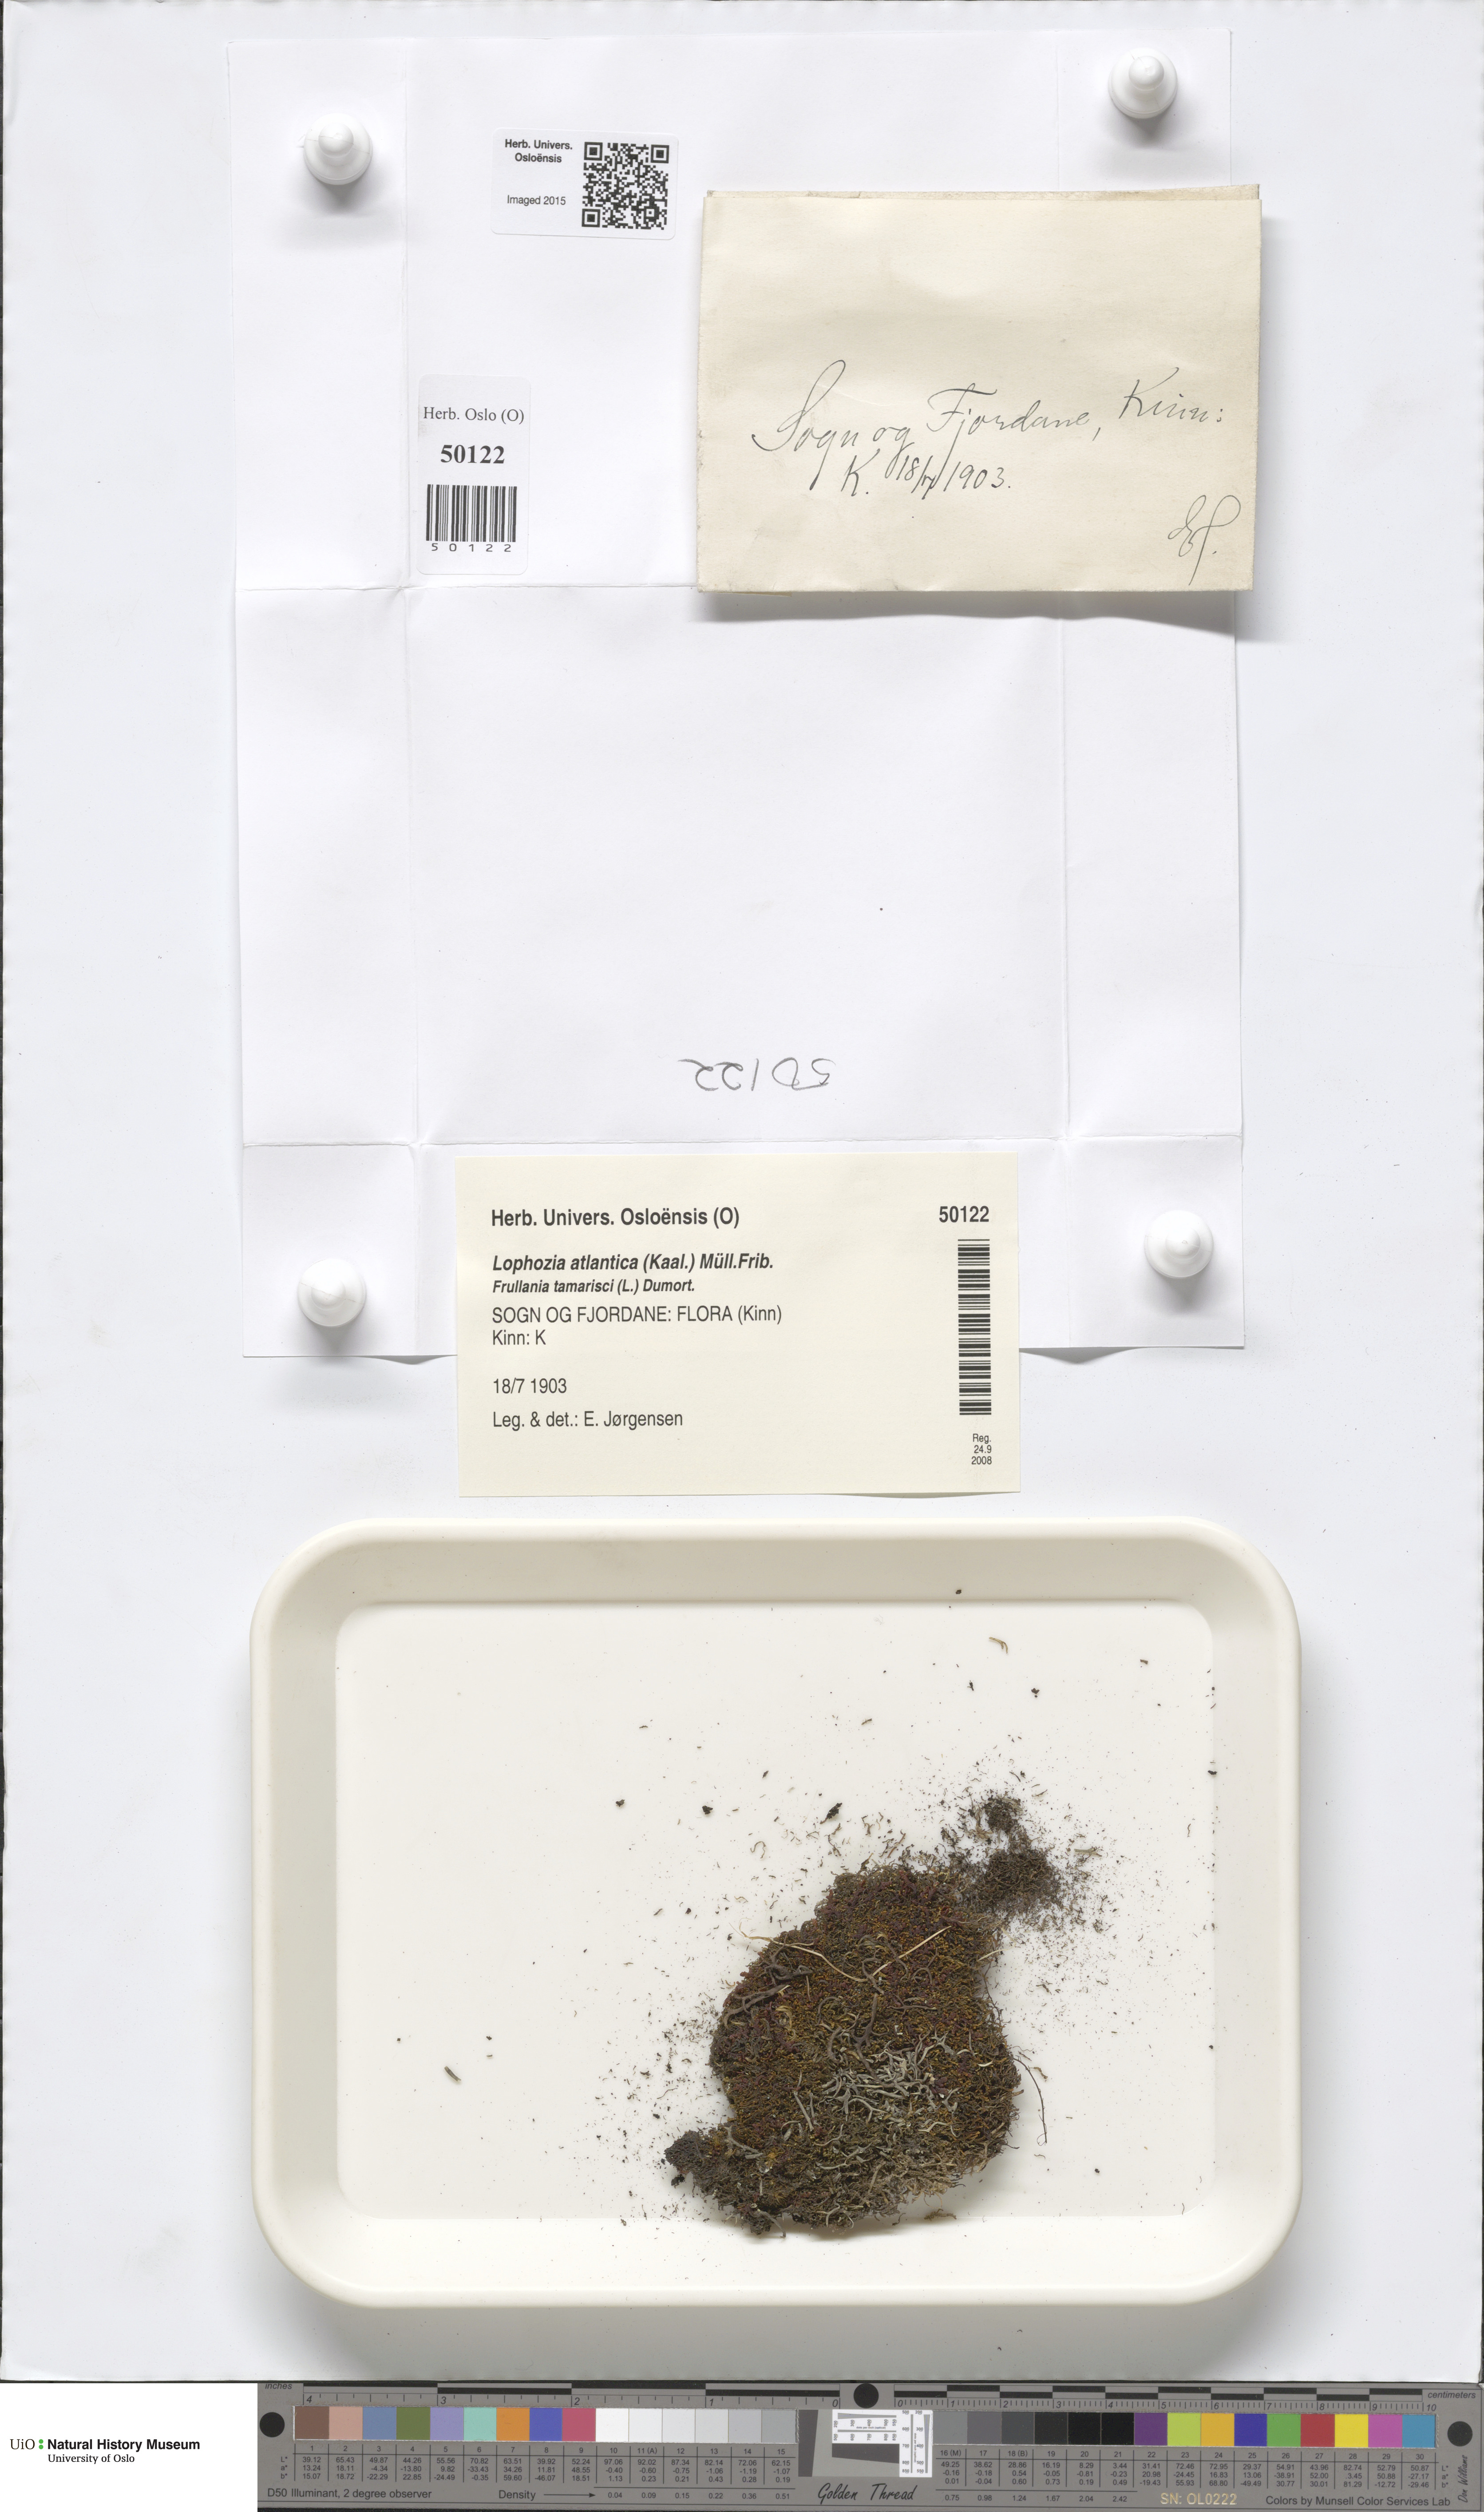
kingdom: Plantae
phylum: Marchantiophyta
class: Jungermanniopsida
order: Jungermanniales
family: Anastrophyllaceae
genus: Orthocaulis
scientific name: Orthocaulis atlanticus
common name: Atlantic pawwort
